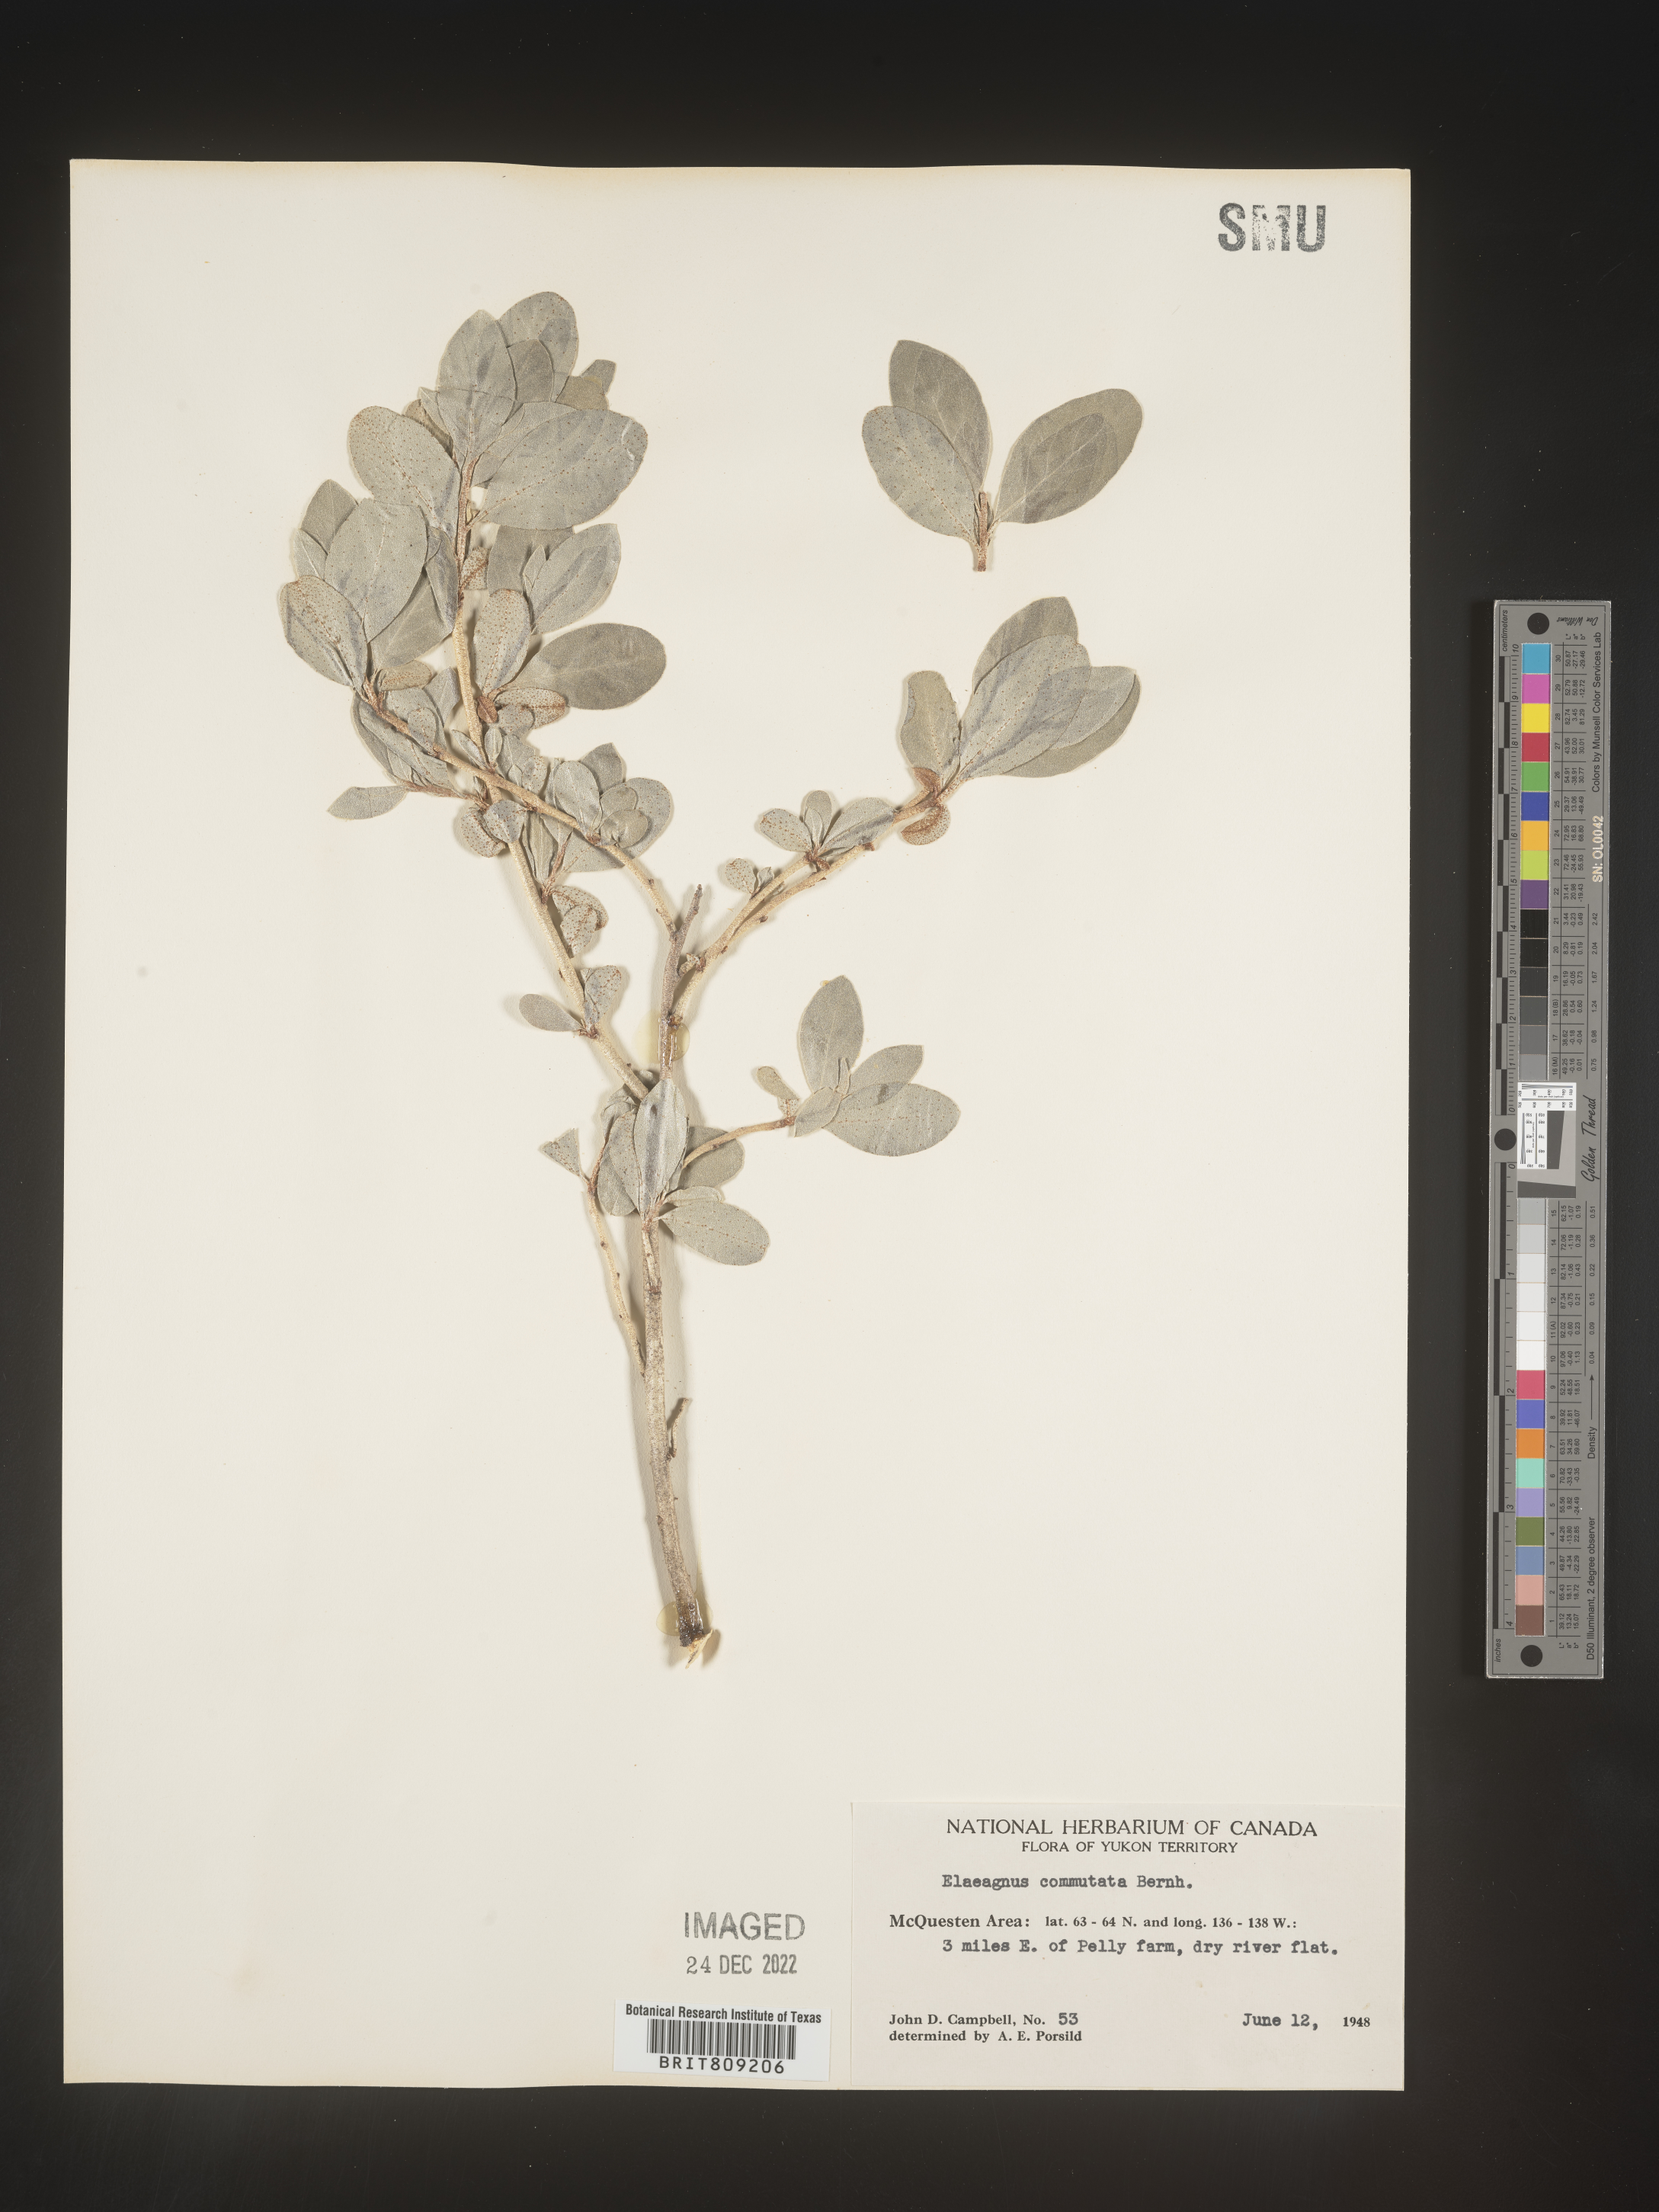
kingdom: Plantae
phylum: Tracheophyta
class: Magnoliopsida
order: Rosales
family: Elaeagnaceae
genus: Elaeagnus
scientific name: Elaeagnus
